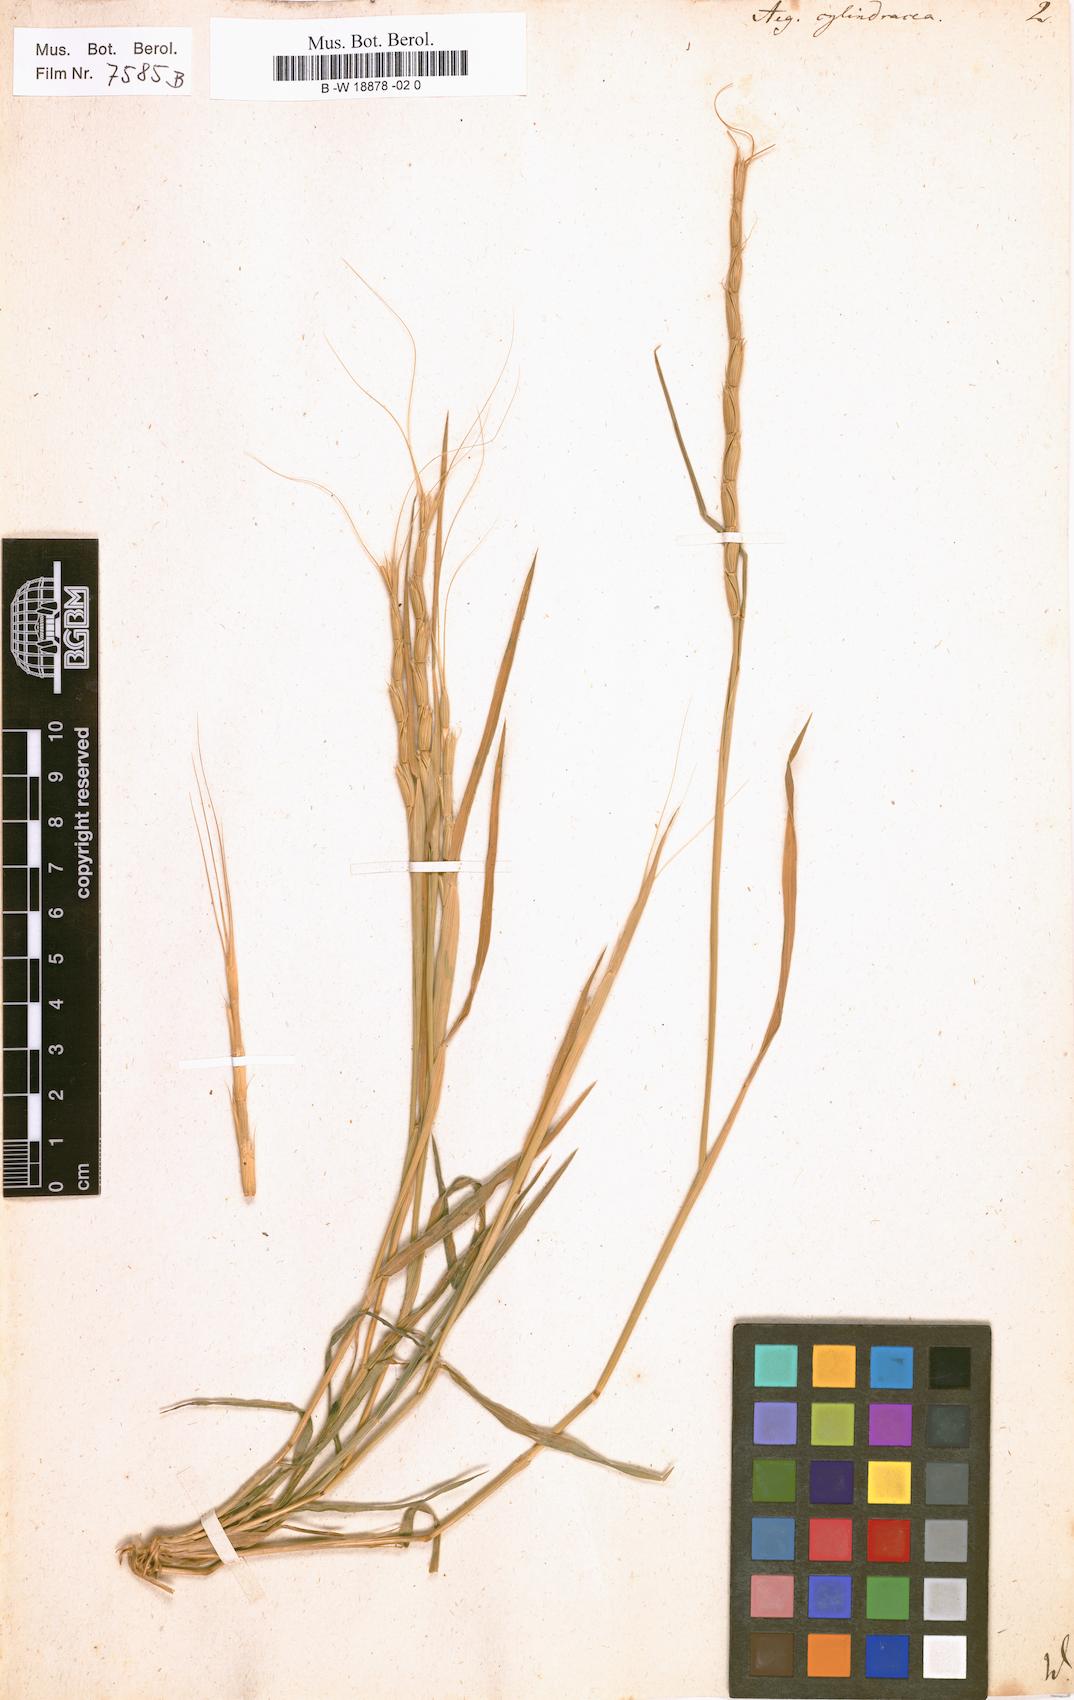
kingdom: Plantae
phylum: Tracheophyta
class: Liliopsida
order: Poales
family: Poaceae
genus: Aegilops
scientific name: Aegilops cylindrica
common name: Jointed goatgrass
